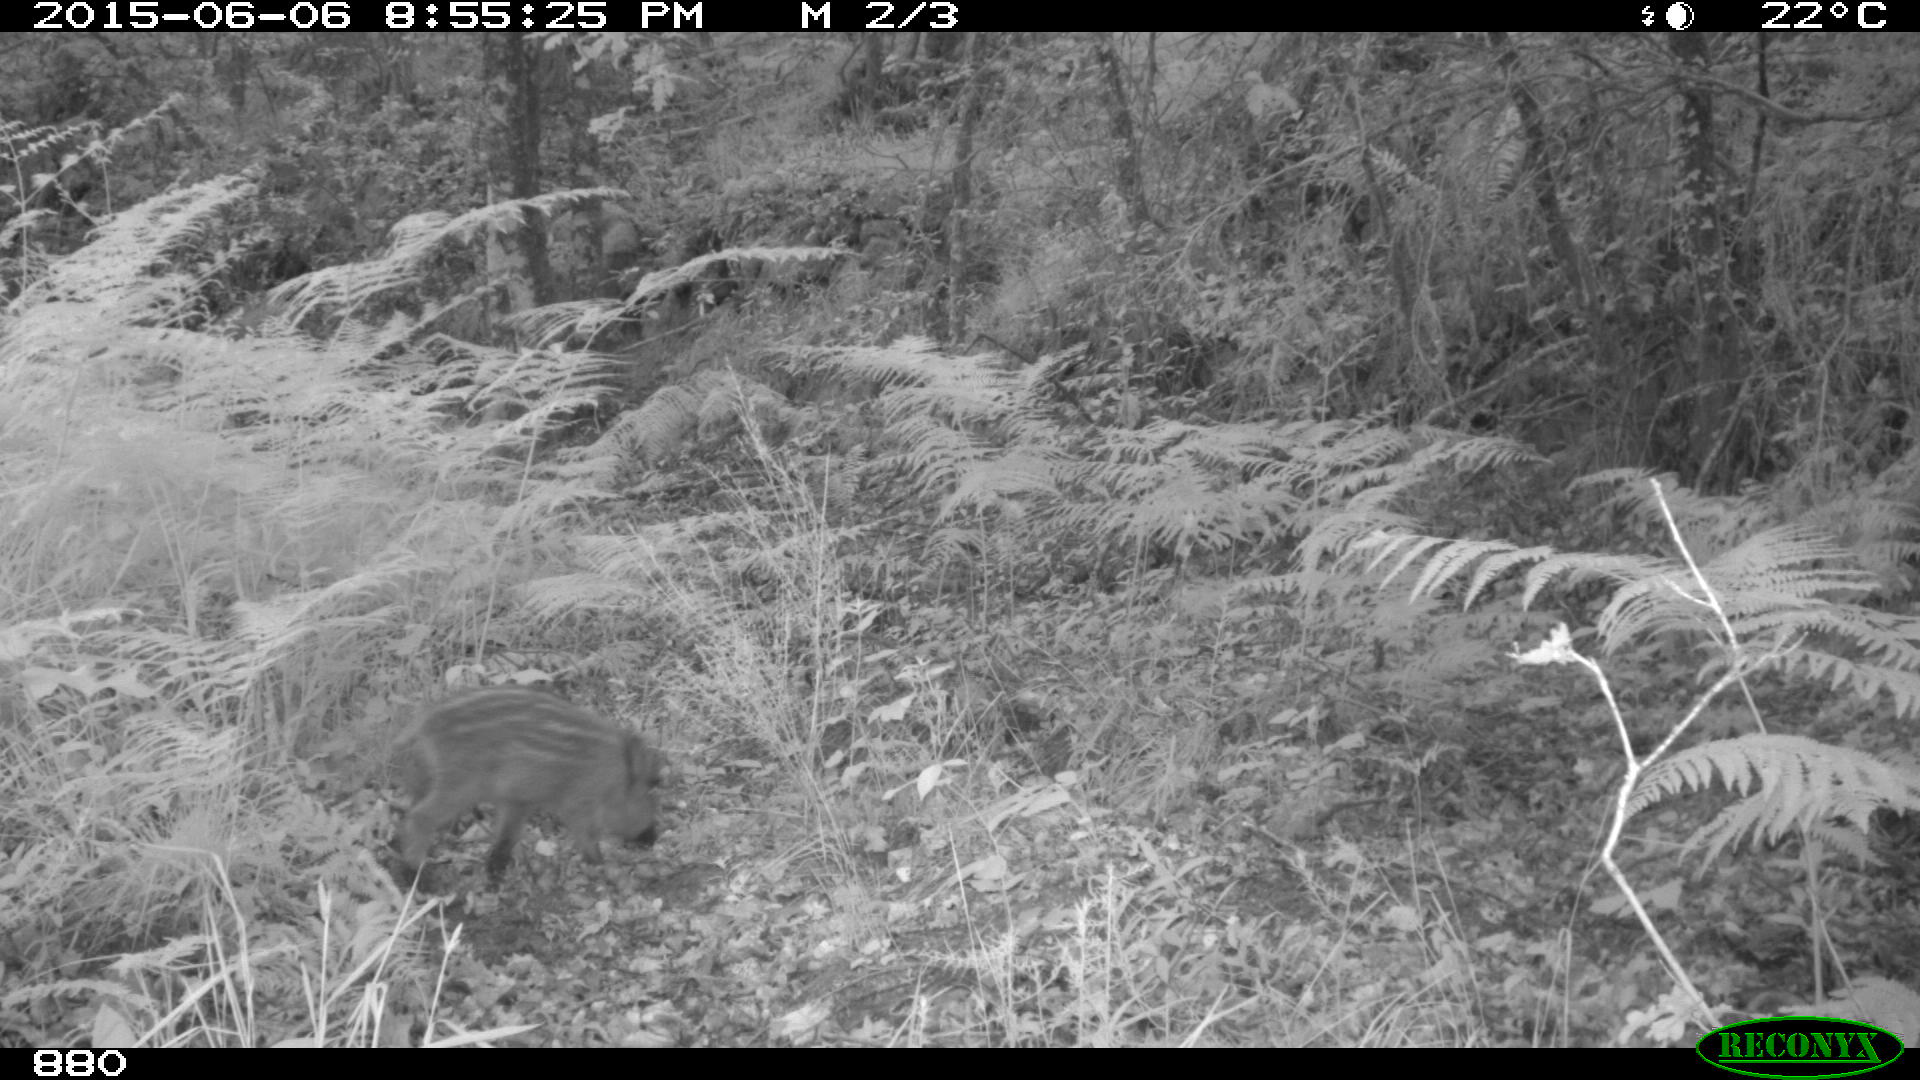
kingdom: Animalia
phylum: Chordata
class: Mammalia
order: Artiodactyla
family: Suidae
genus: Sus
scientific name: Sus scrofa
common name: Wild boar
